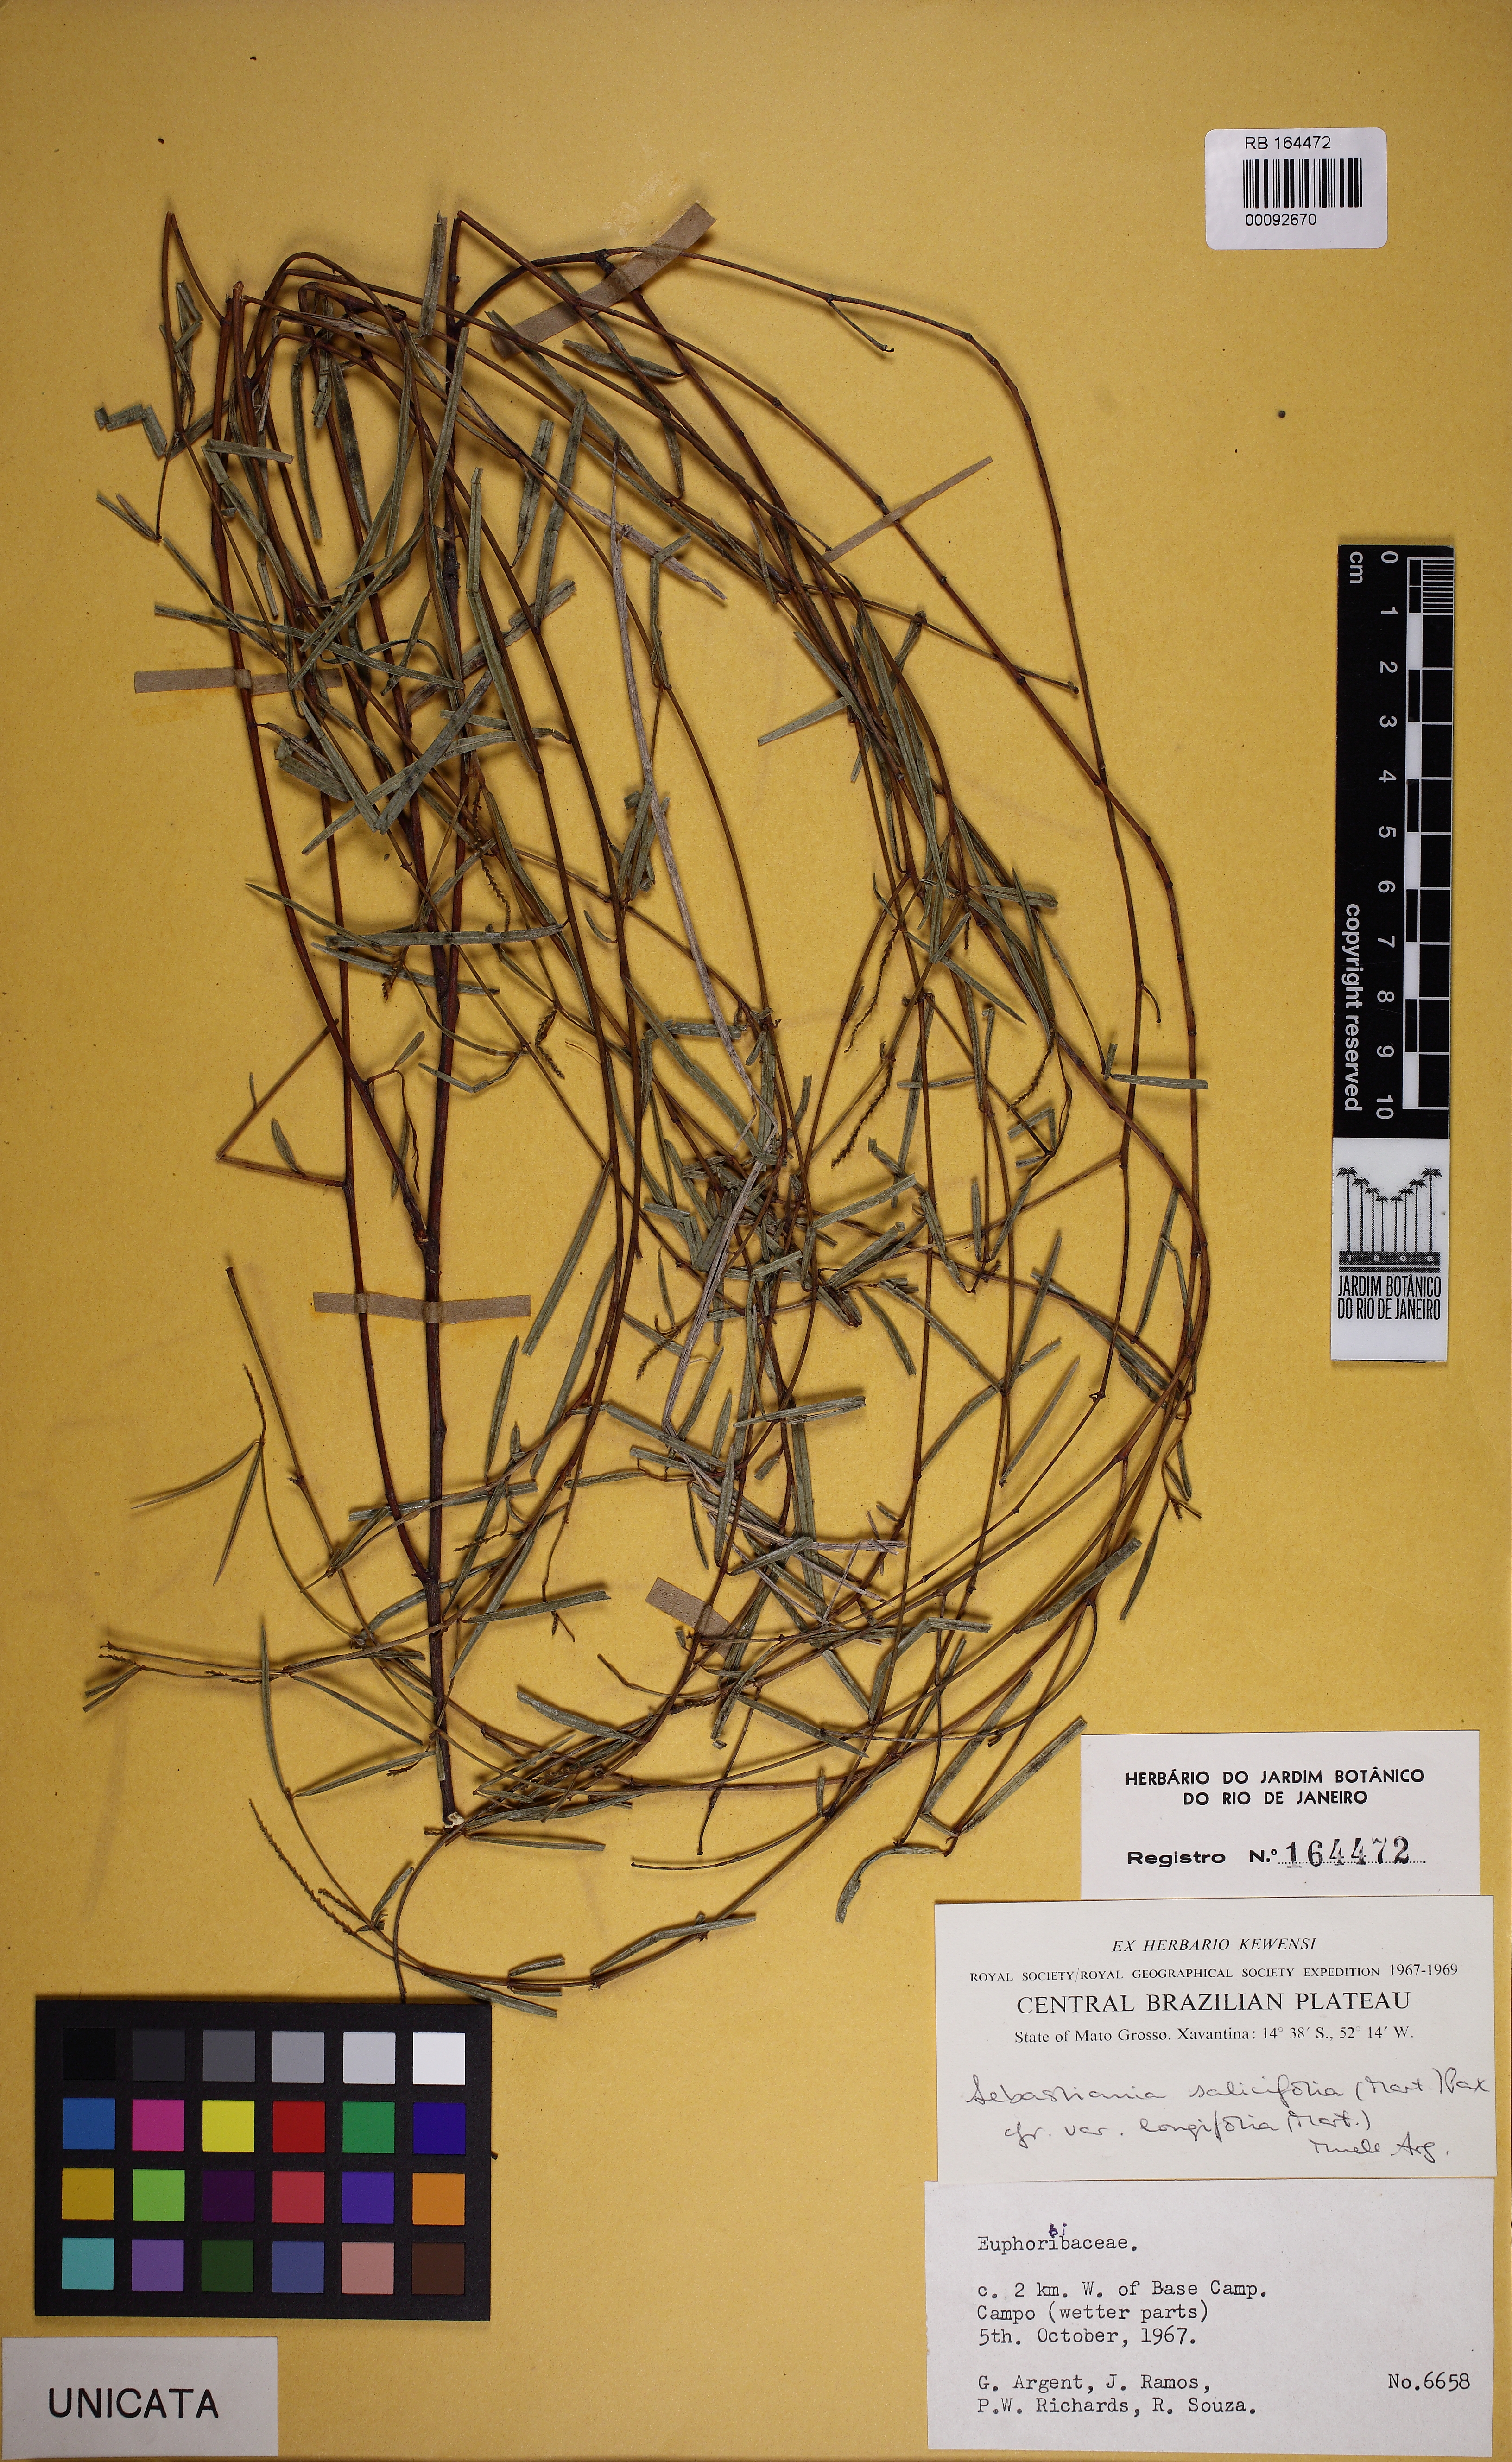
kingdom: Plantae
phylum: Tracheophyta
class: Magnoliopsida
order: Malpighiales
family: Euphorbiaceae
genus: Microstachys
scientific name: Microstachys salicifolia
